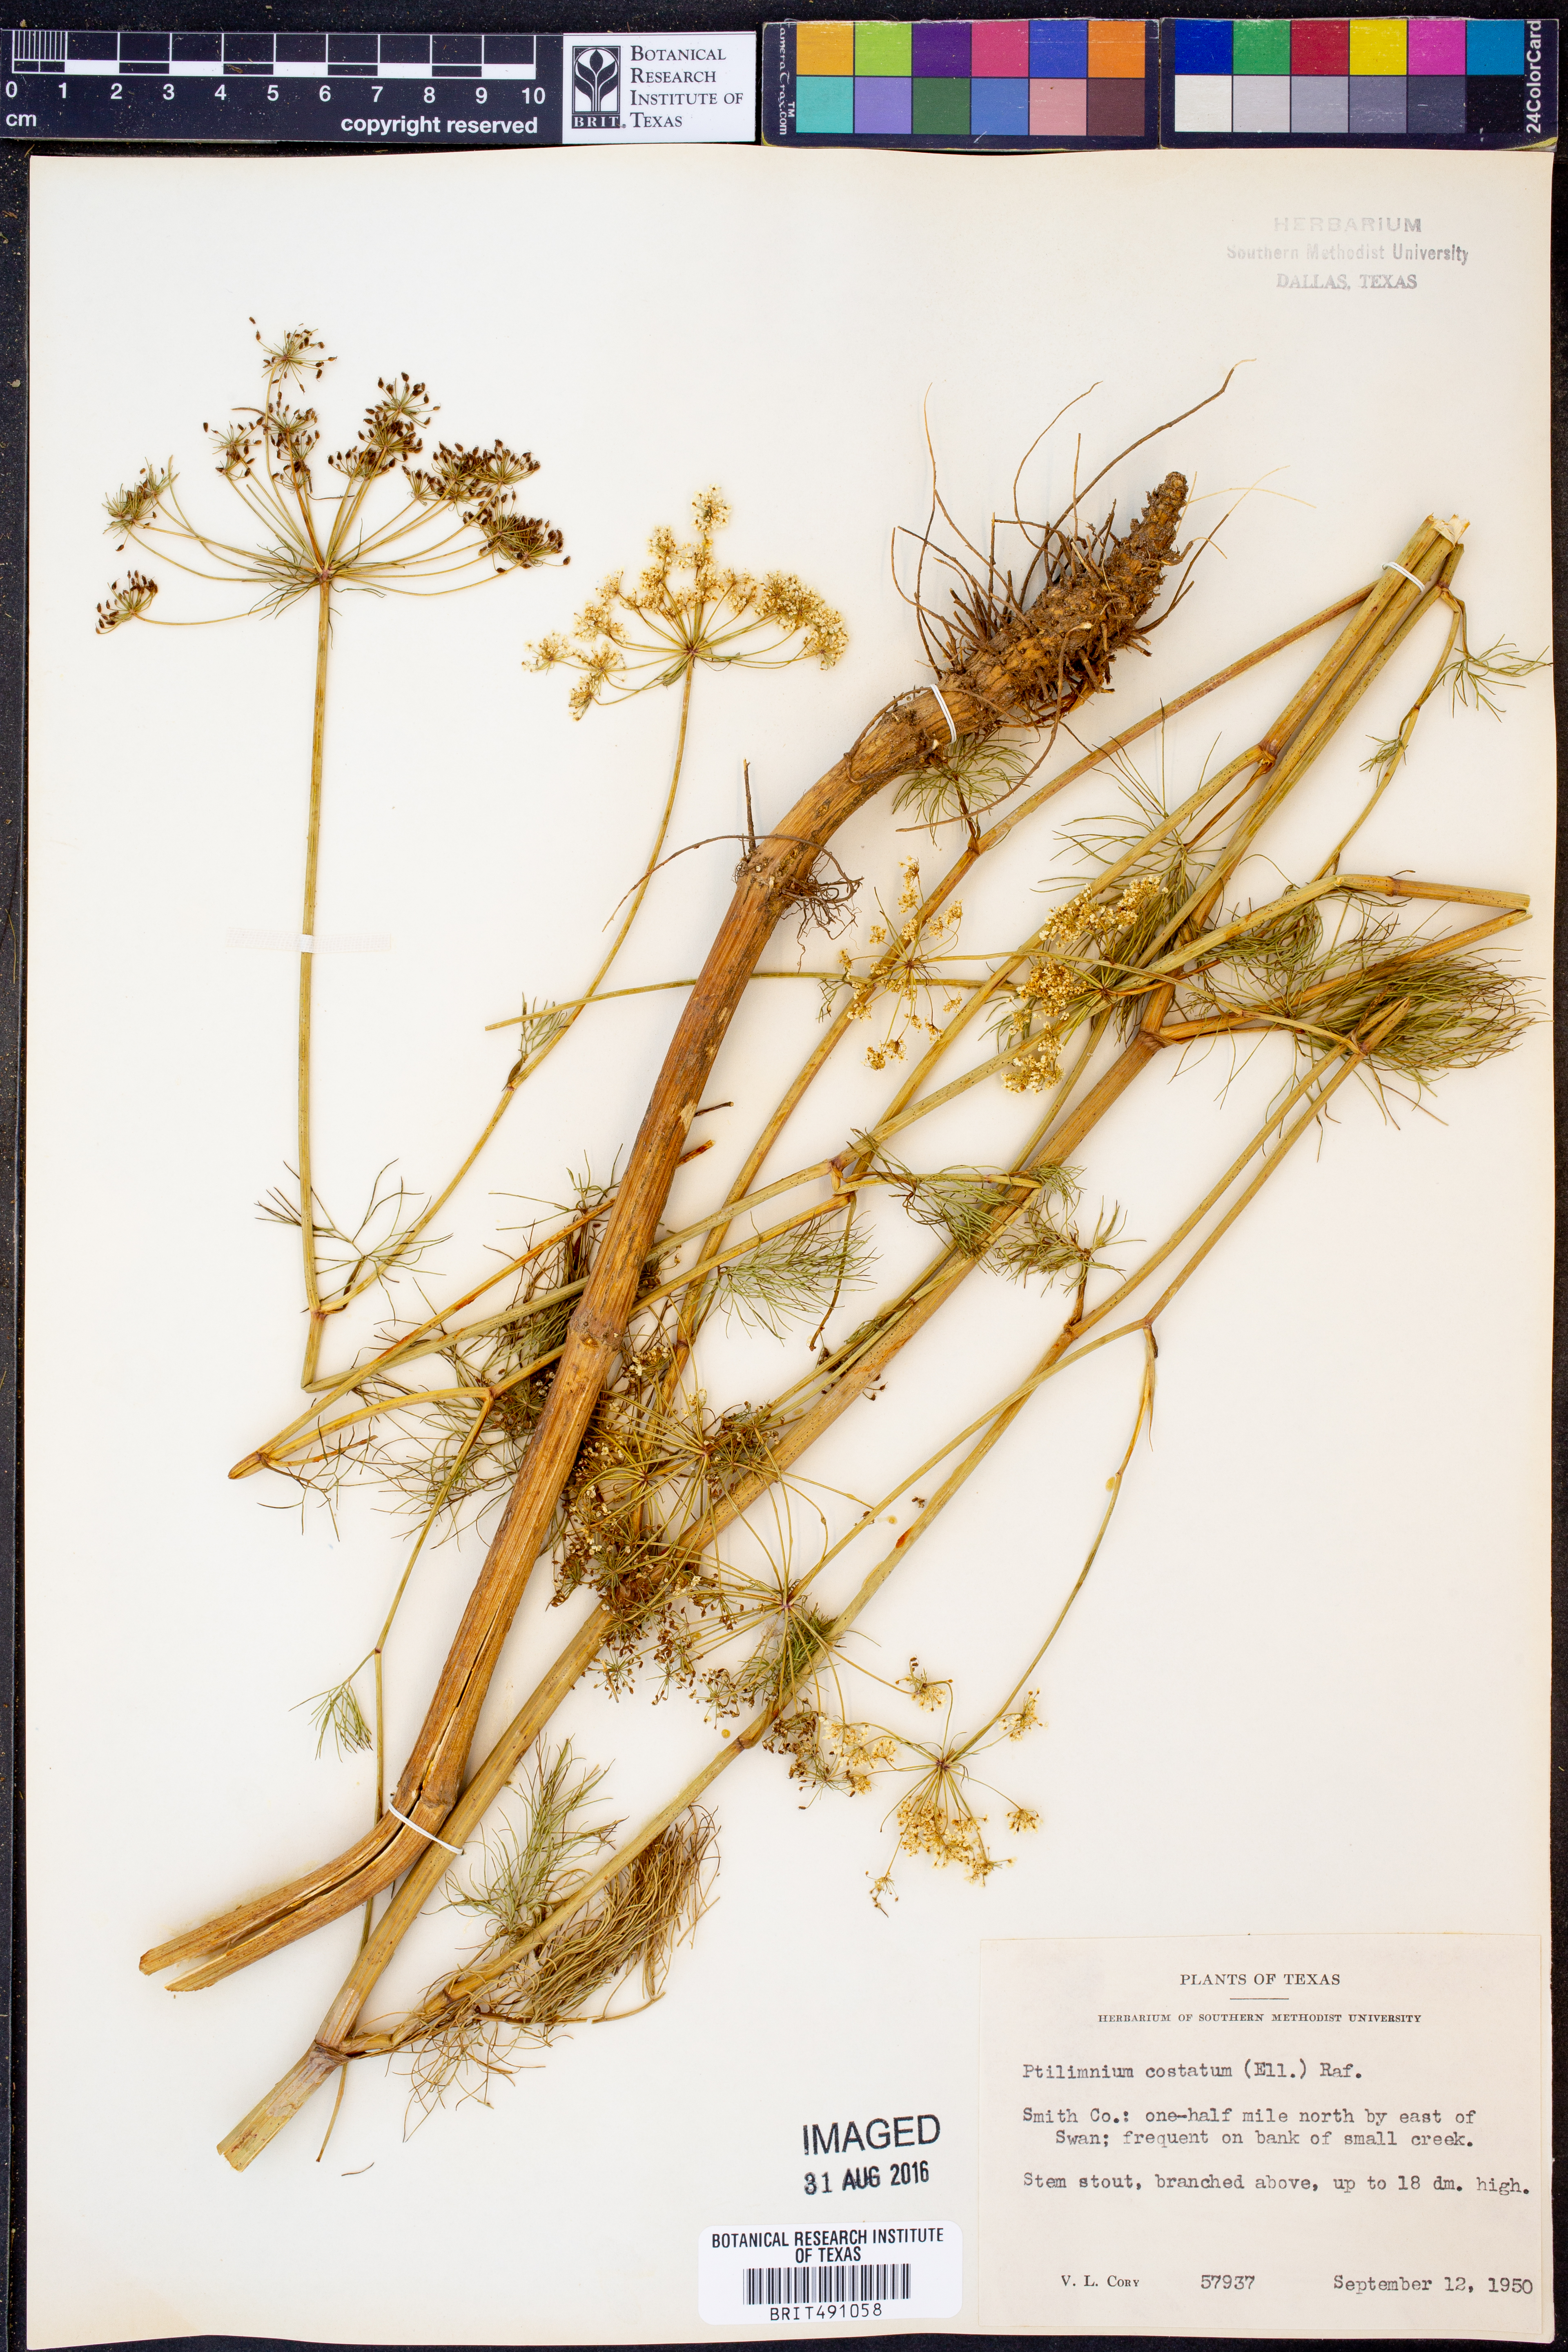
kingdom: Plantae
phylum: Tracheophyta
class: Magnoliopsida
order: Apiales
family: Apiaceae
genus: Ptilimnium
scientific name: Ptilimnium costatum
